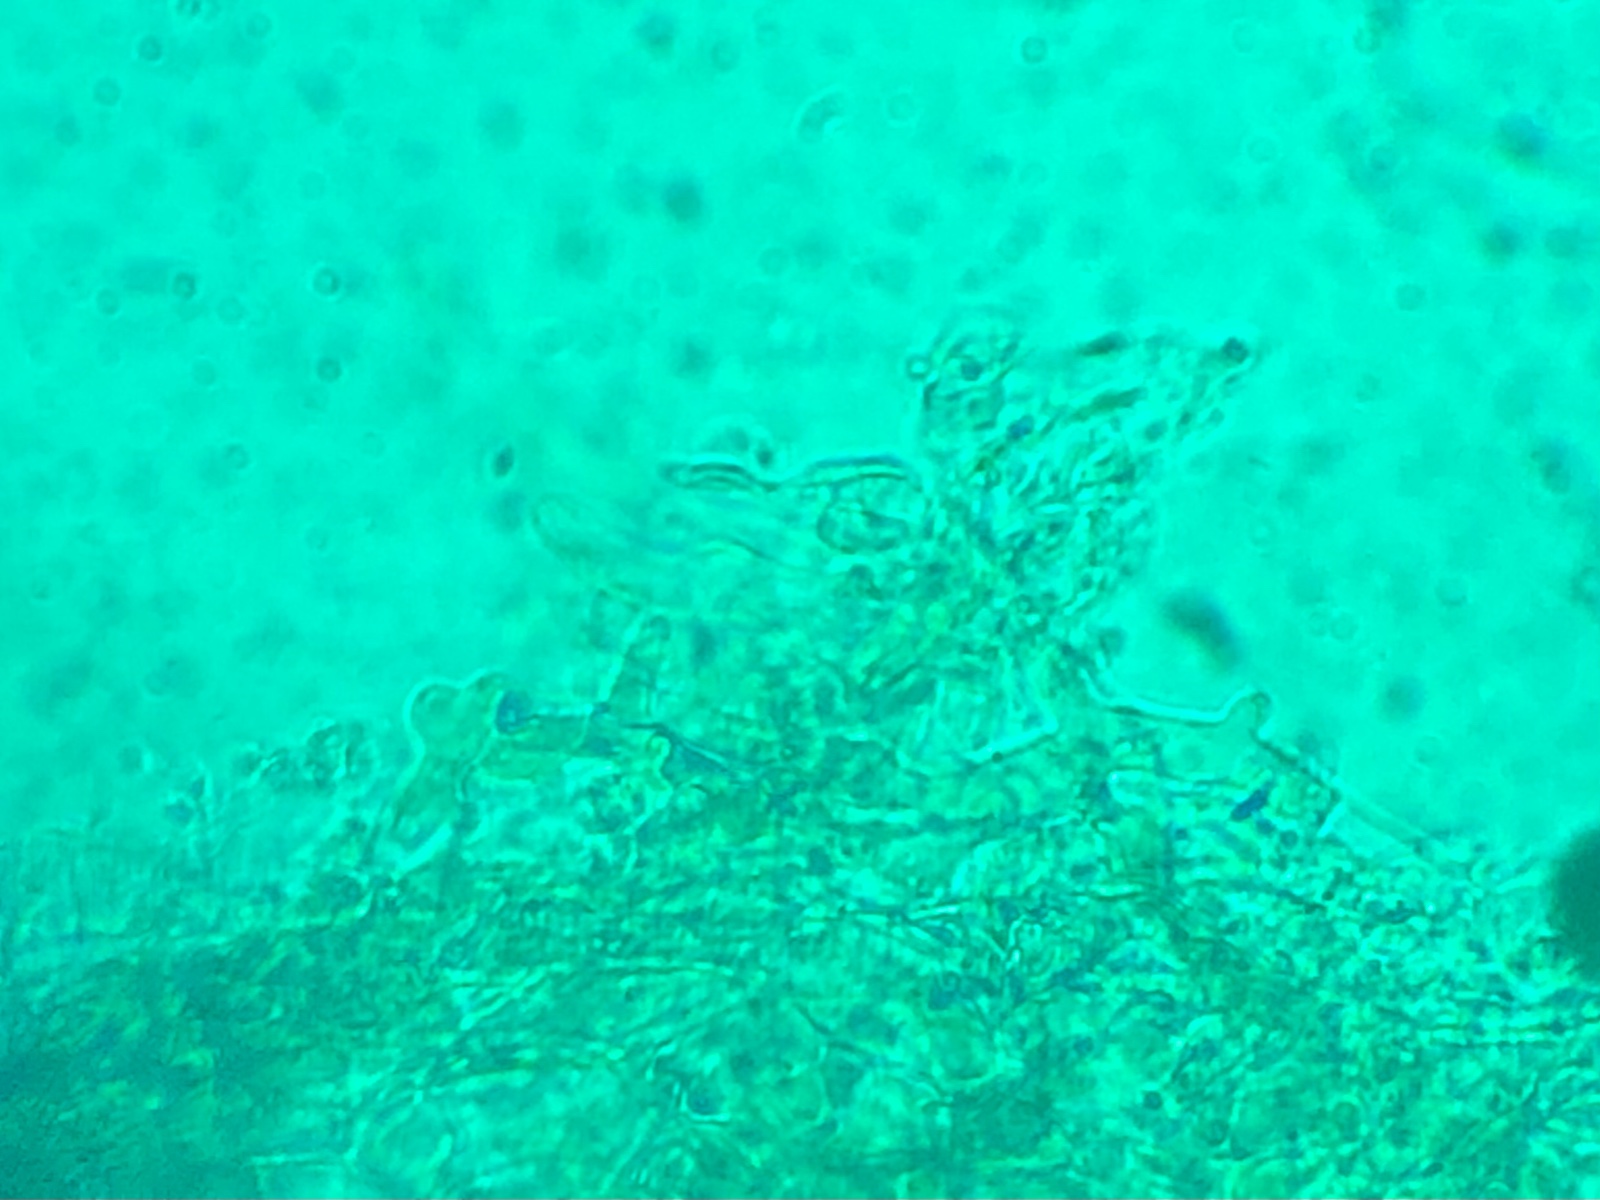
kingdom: Fungi
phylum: Basidiomycota
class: Agaricomycetes
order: Agaricales
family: Psathyrellaceae
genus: Coprinopsis
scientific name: Coprinopsis luteocephala
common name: gullig blækhat
